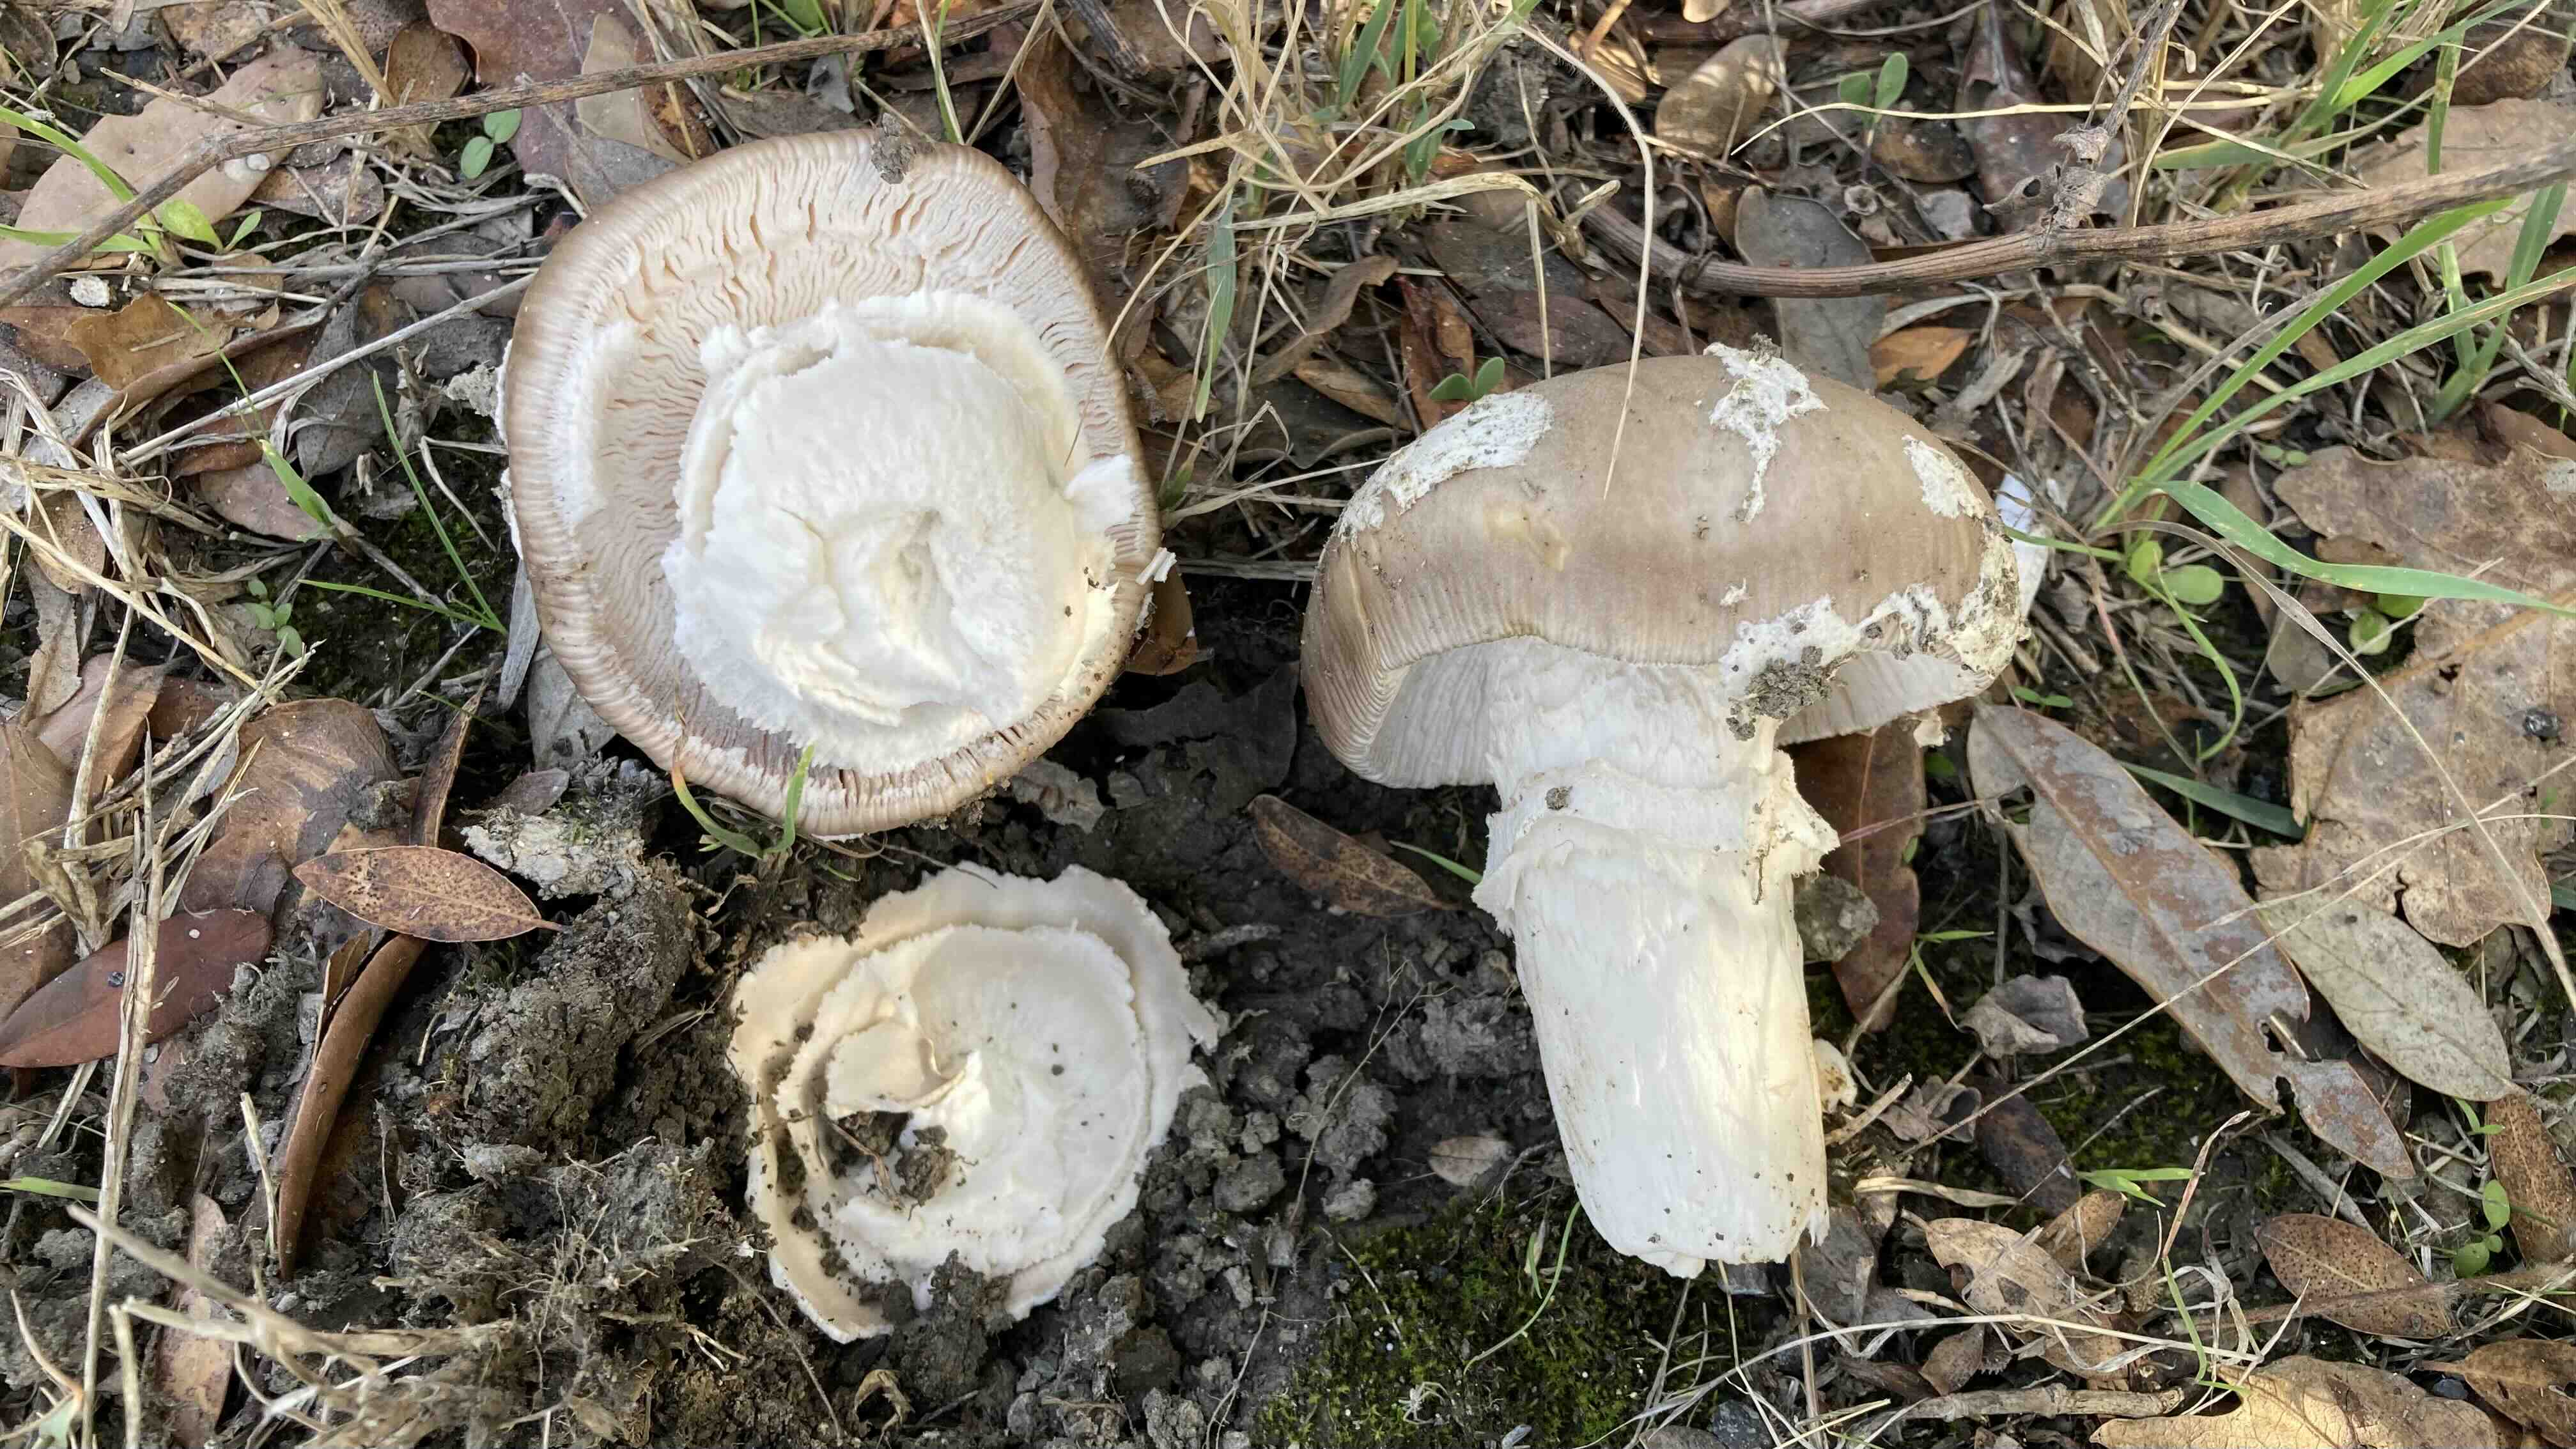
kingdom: Fungi
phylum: Basidiomycota
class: Agaricomycetes
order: Agaricales
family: Amanitaceae
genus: Amanita
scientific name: Amanita
